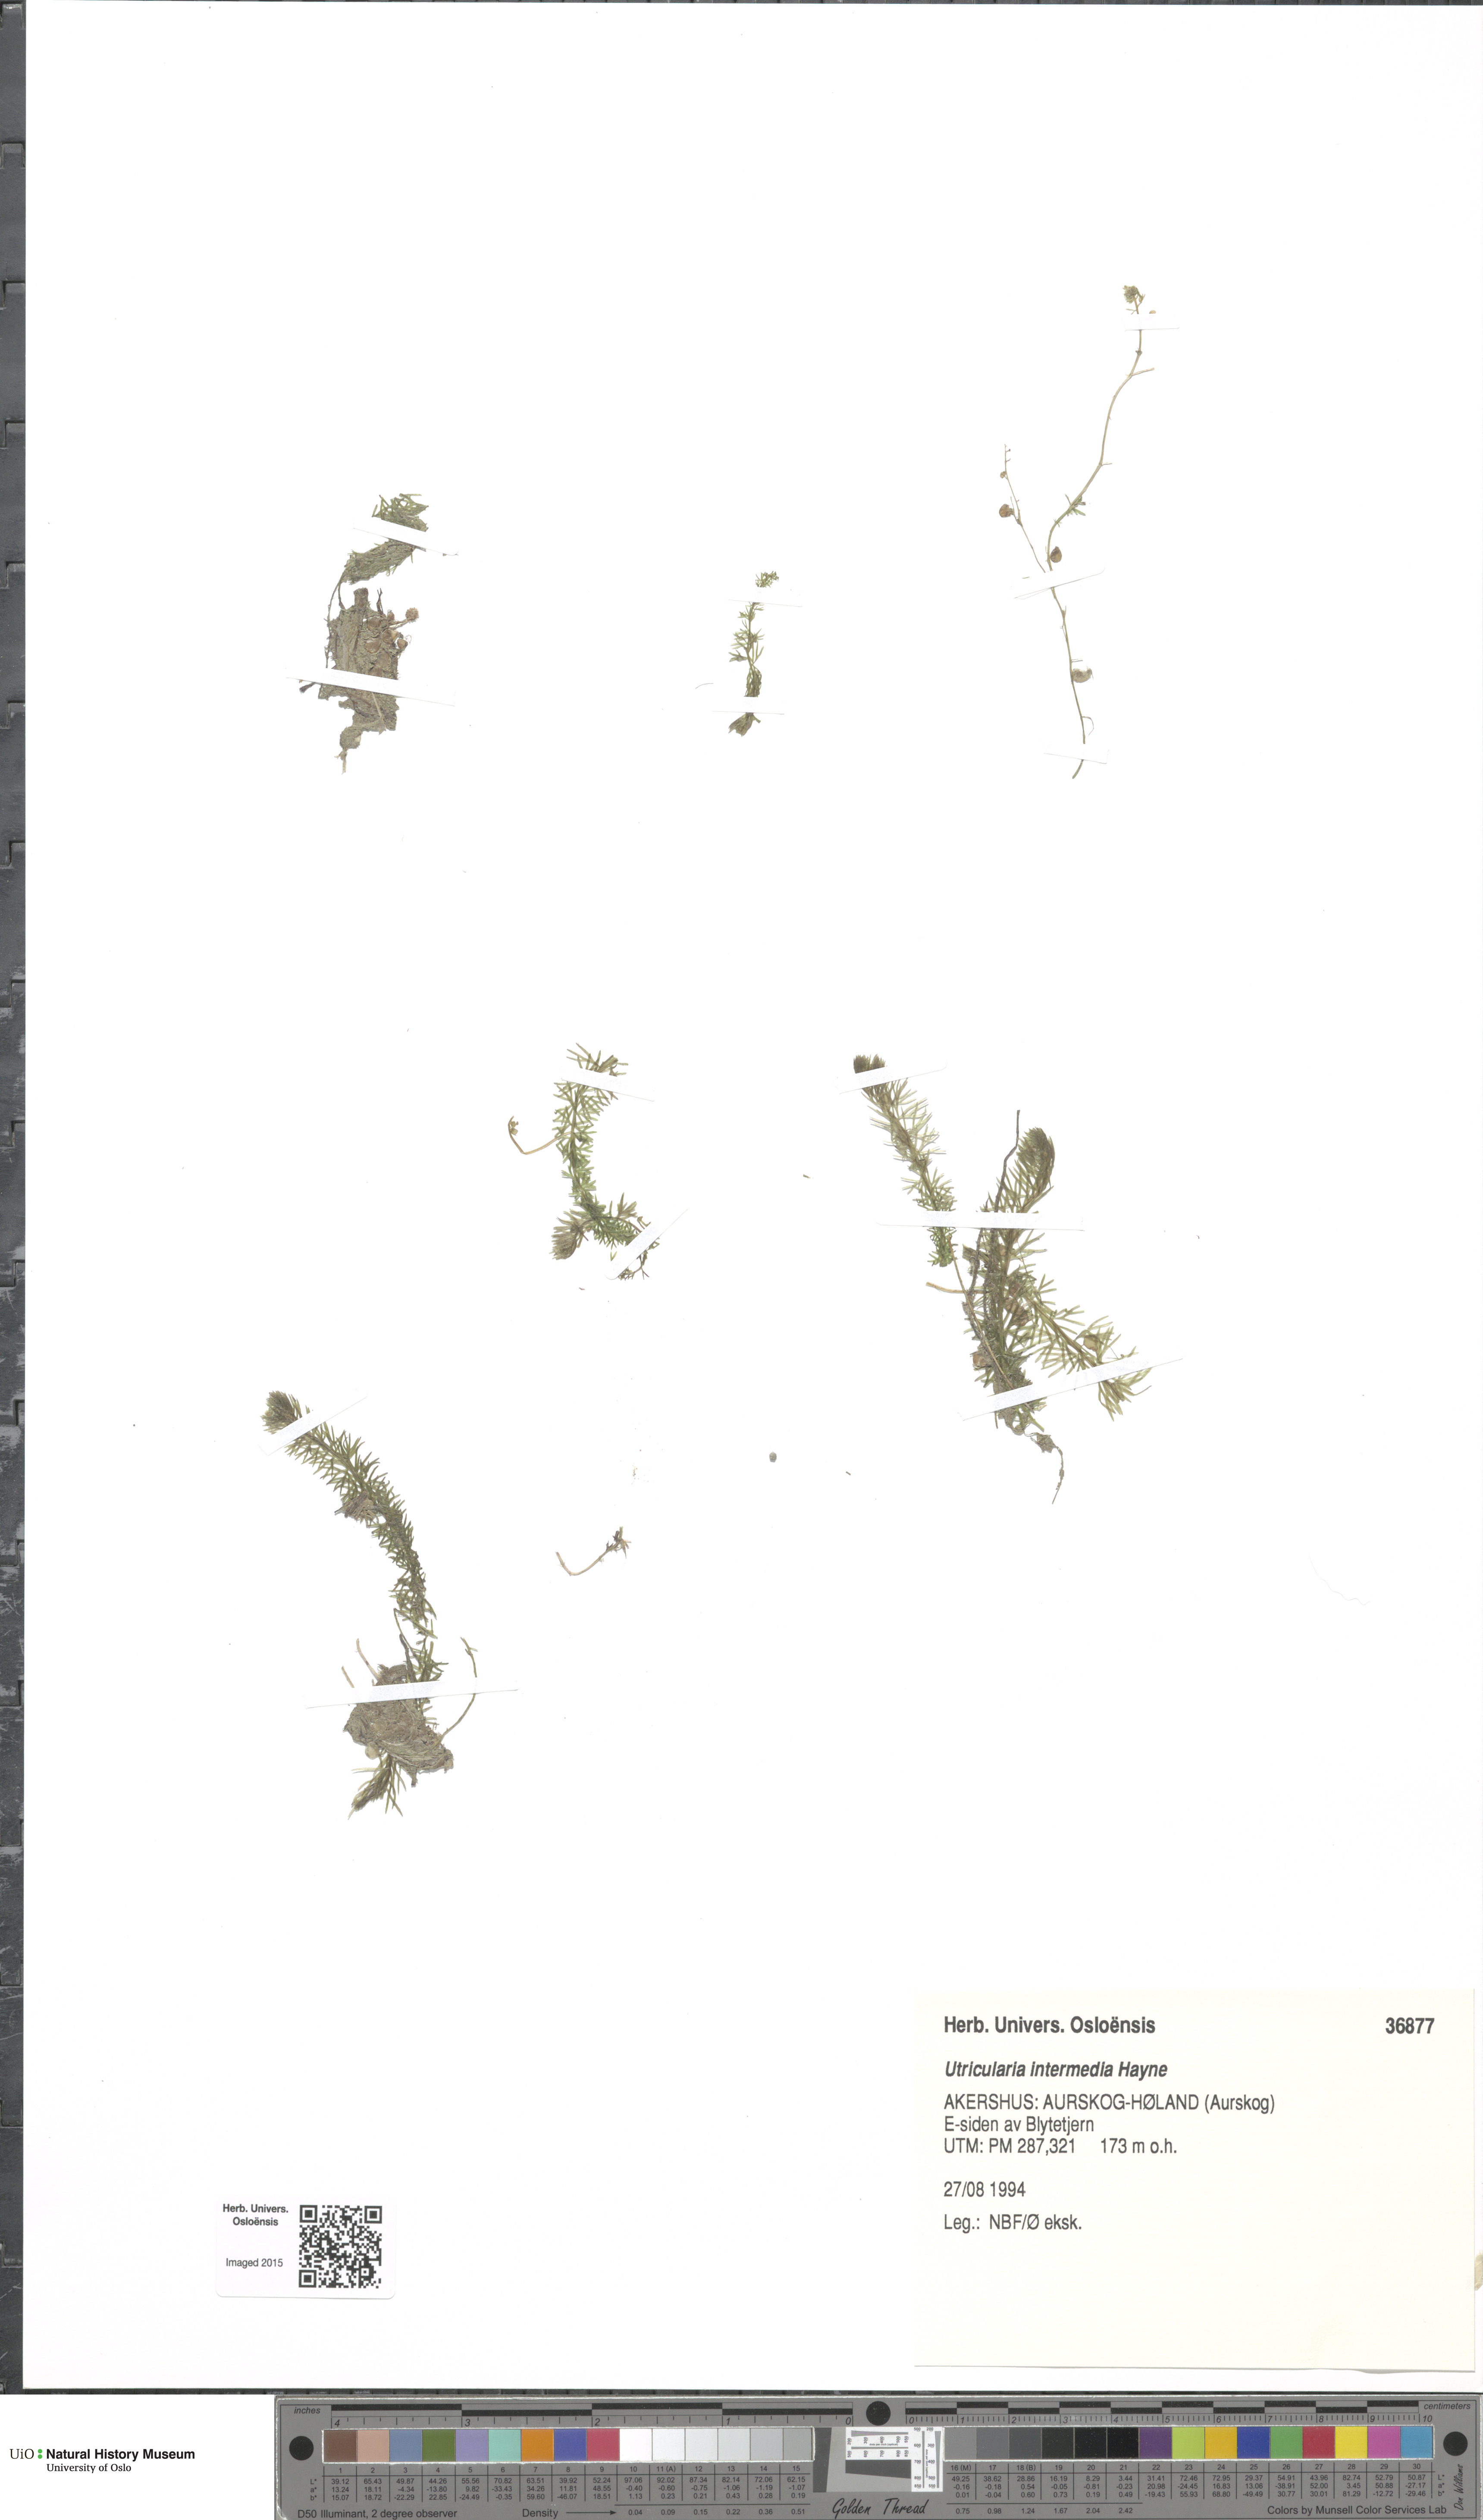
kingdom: Plantae
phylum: Tracheophyta
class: Magnoliopsida
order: Lamiales
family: Lentibulariaceae
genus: Utricularia
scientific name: Utricularia intermedia
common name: Intermediate bladderwort
